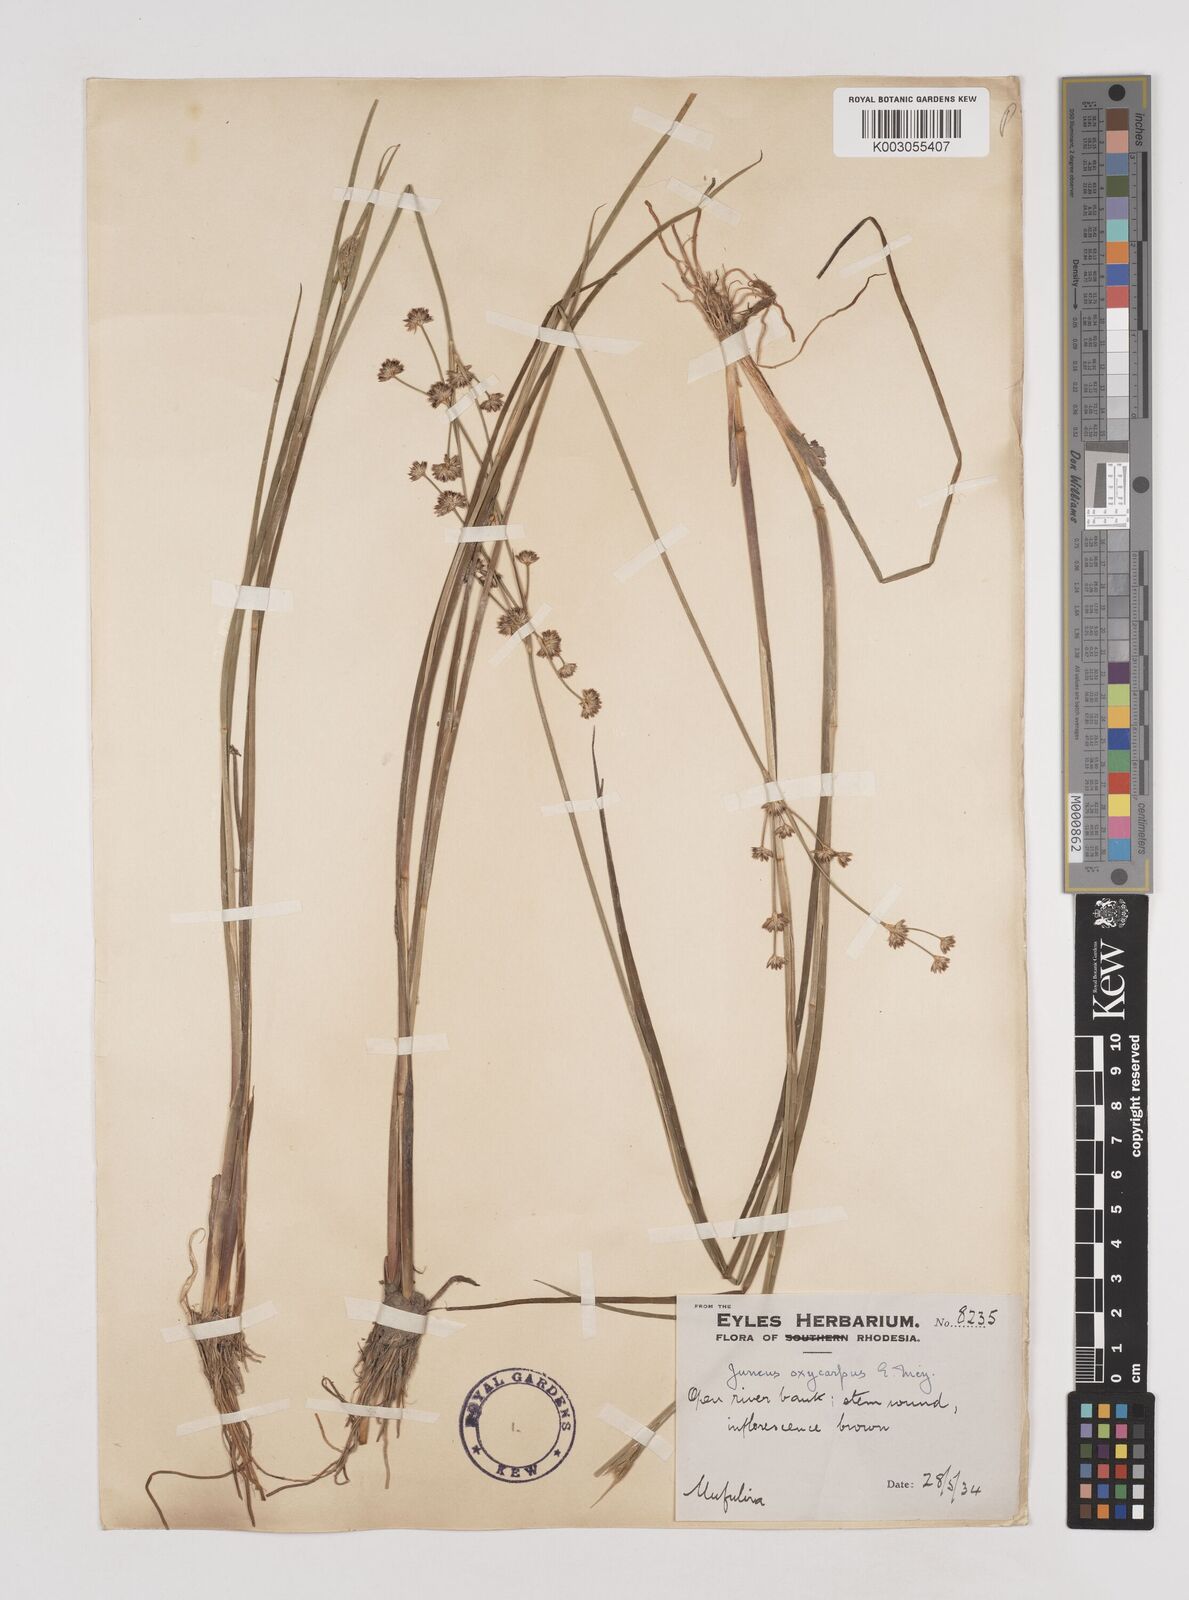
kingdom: Plantae
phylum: Tracheophyta
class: Liliopsida
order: Poales
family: Juncaceae
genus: Juncus
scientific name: Juncus oxycarpus
